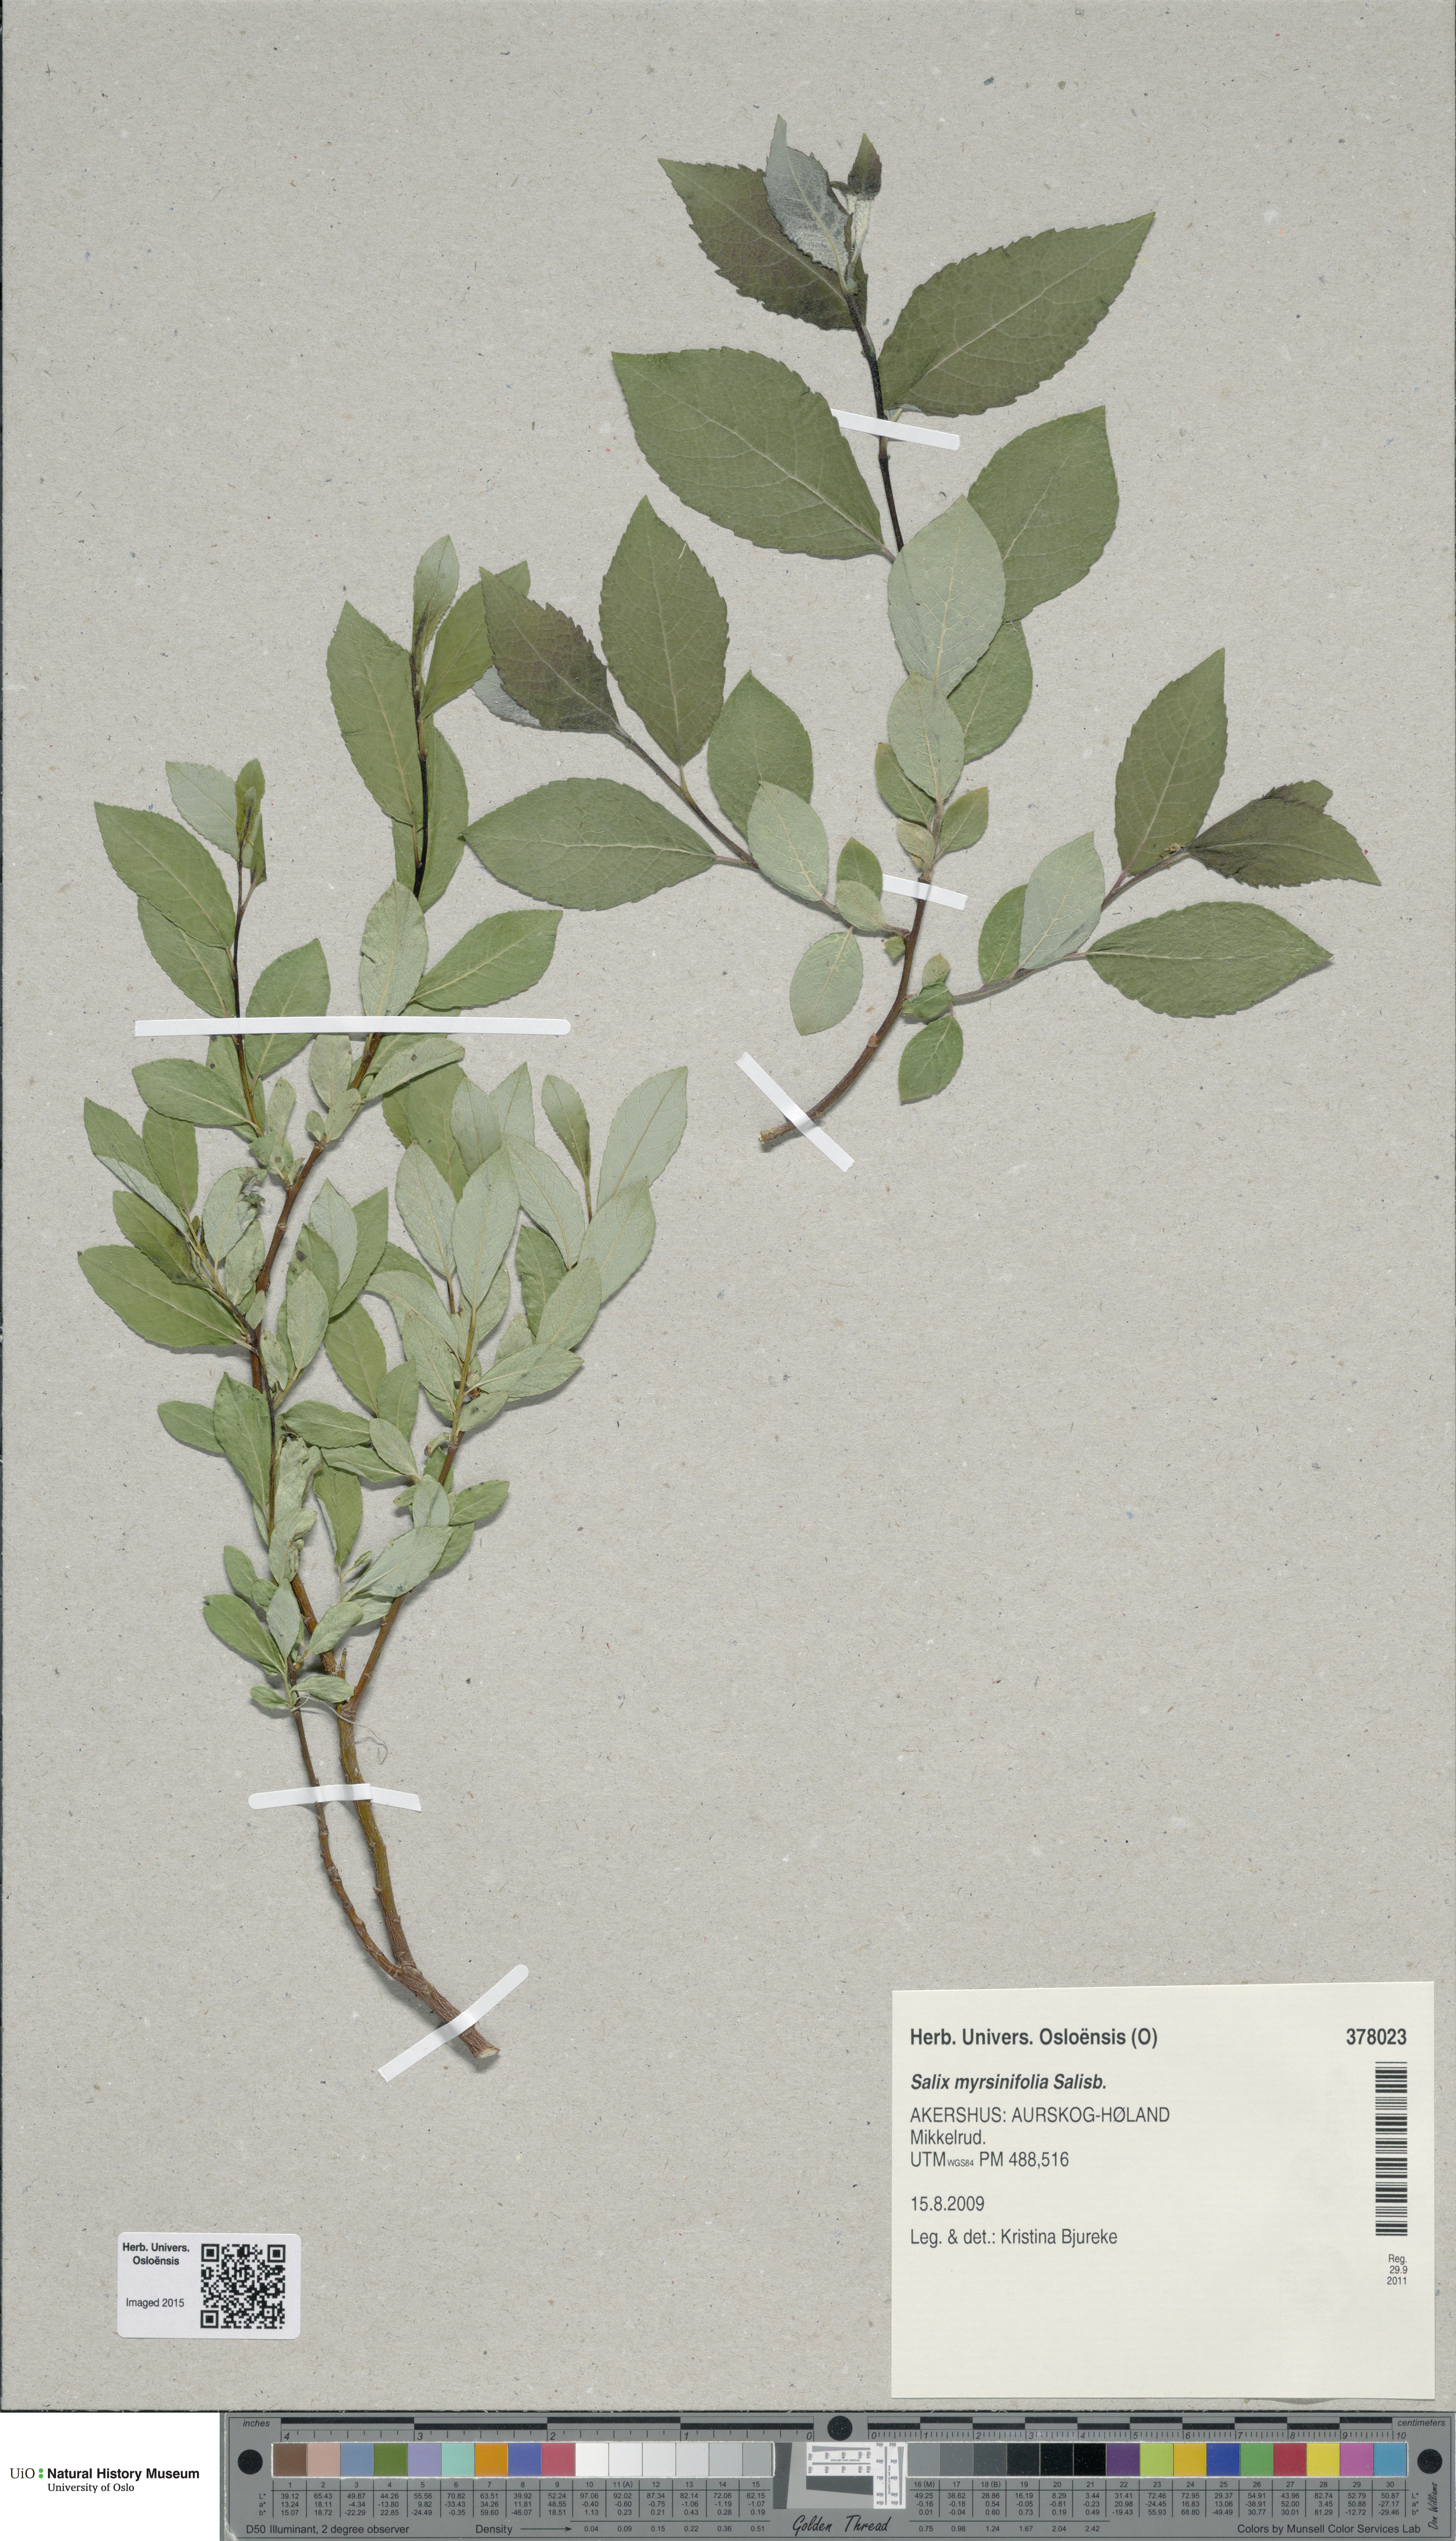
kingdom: Plantae
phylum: Tracheophyta
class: Magnoliopsida
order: Malpighiales
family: Salicaceae
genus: Salix
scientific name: Salix myrsinifolia
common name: Dark-leaved willow
